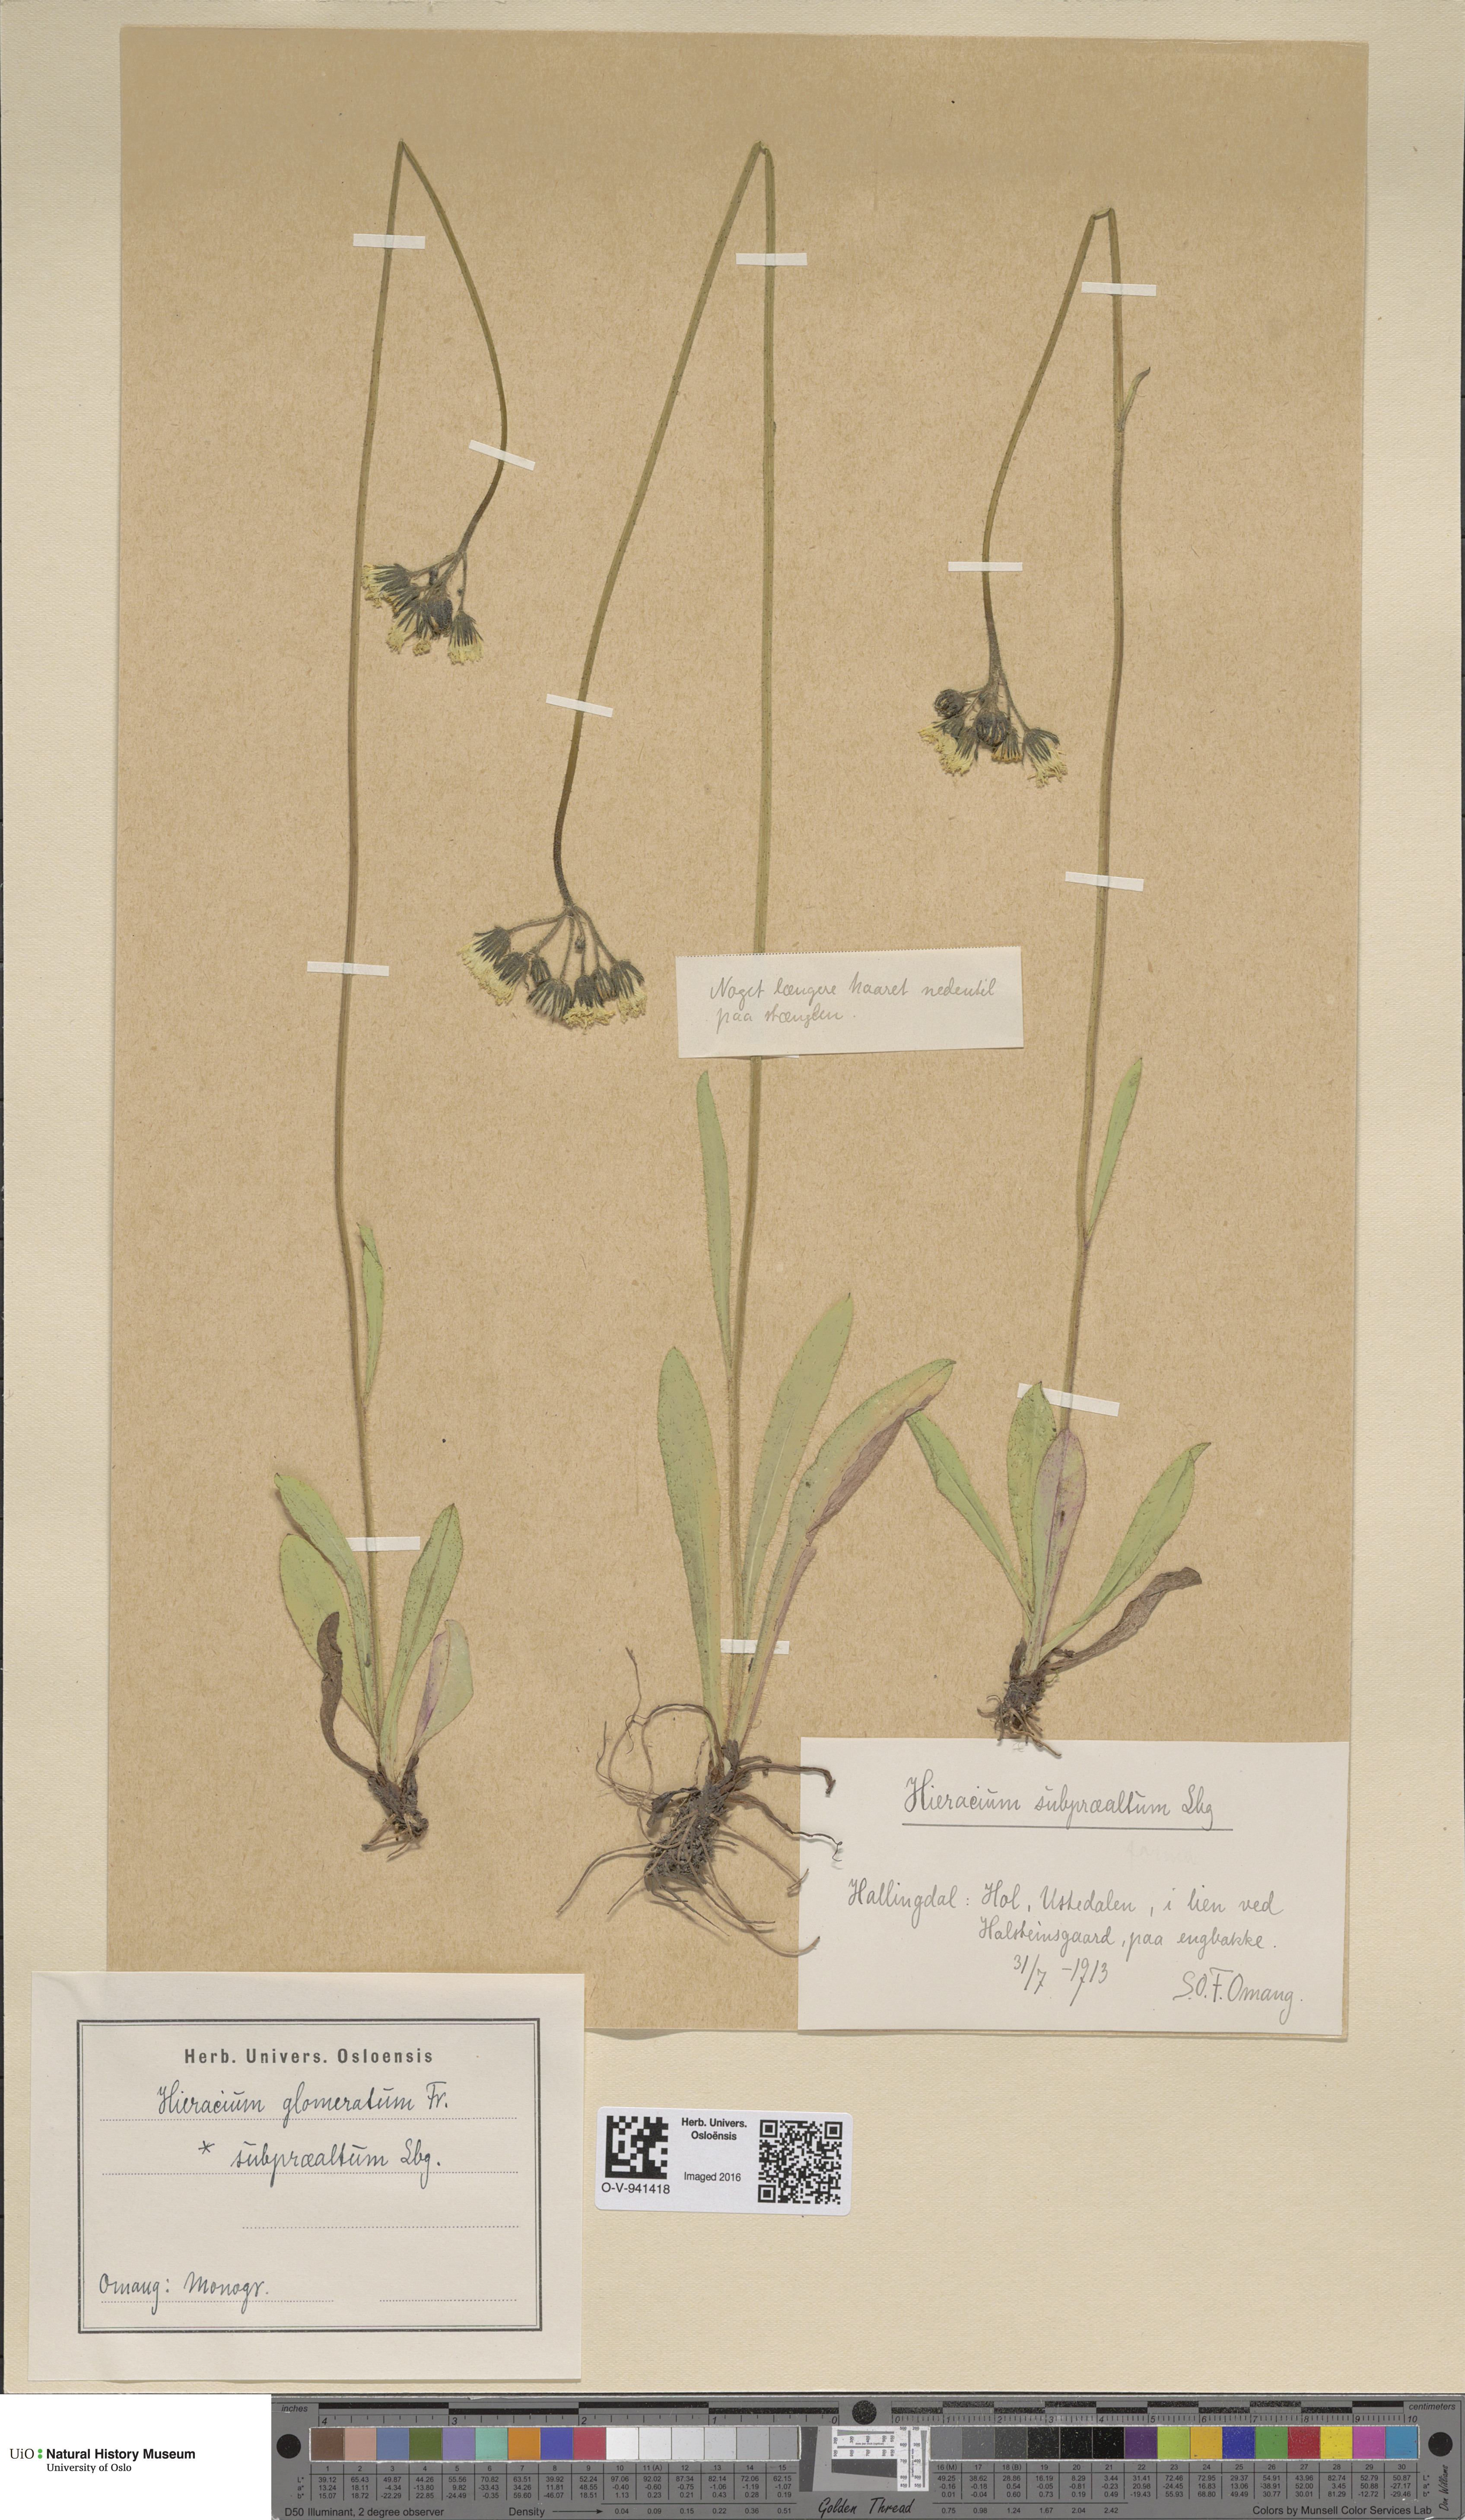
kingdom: Plantae
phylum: Tracheophyta
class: Magnoliopsida
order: Asterales
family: Asteraceae
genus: Pilosella
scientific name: Pilosella glomerata
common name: Queen devil hawkweed
